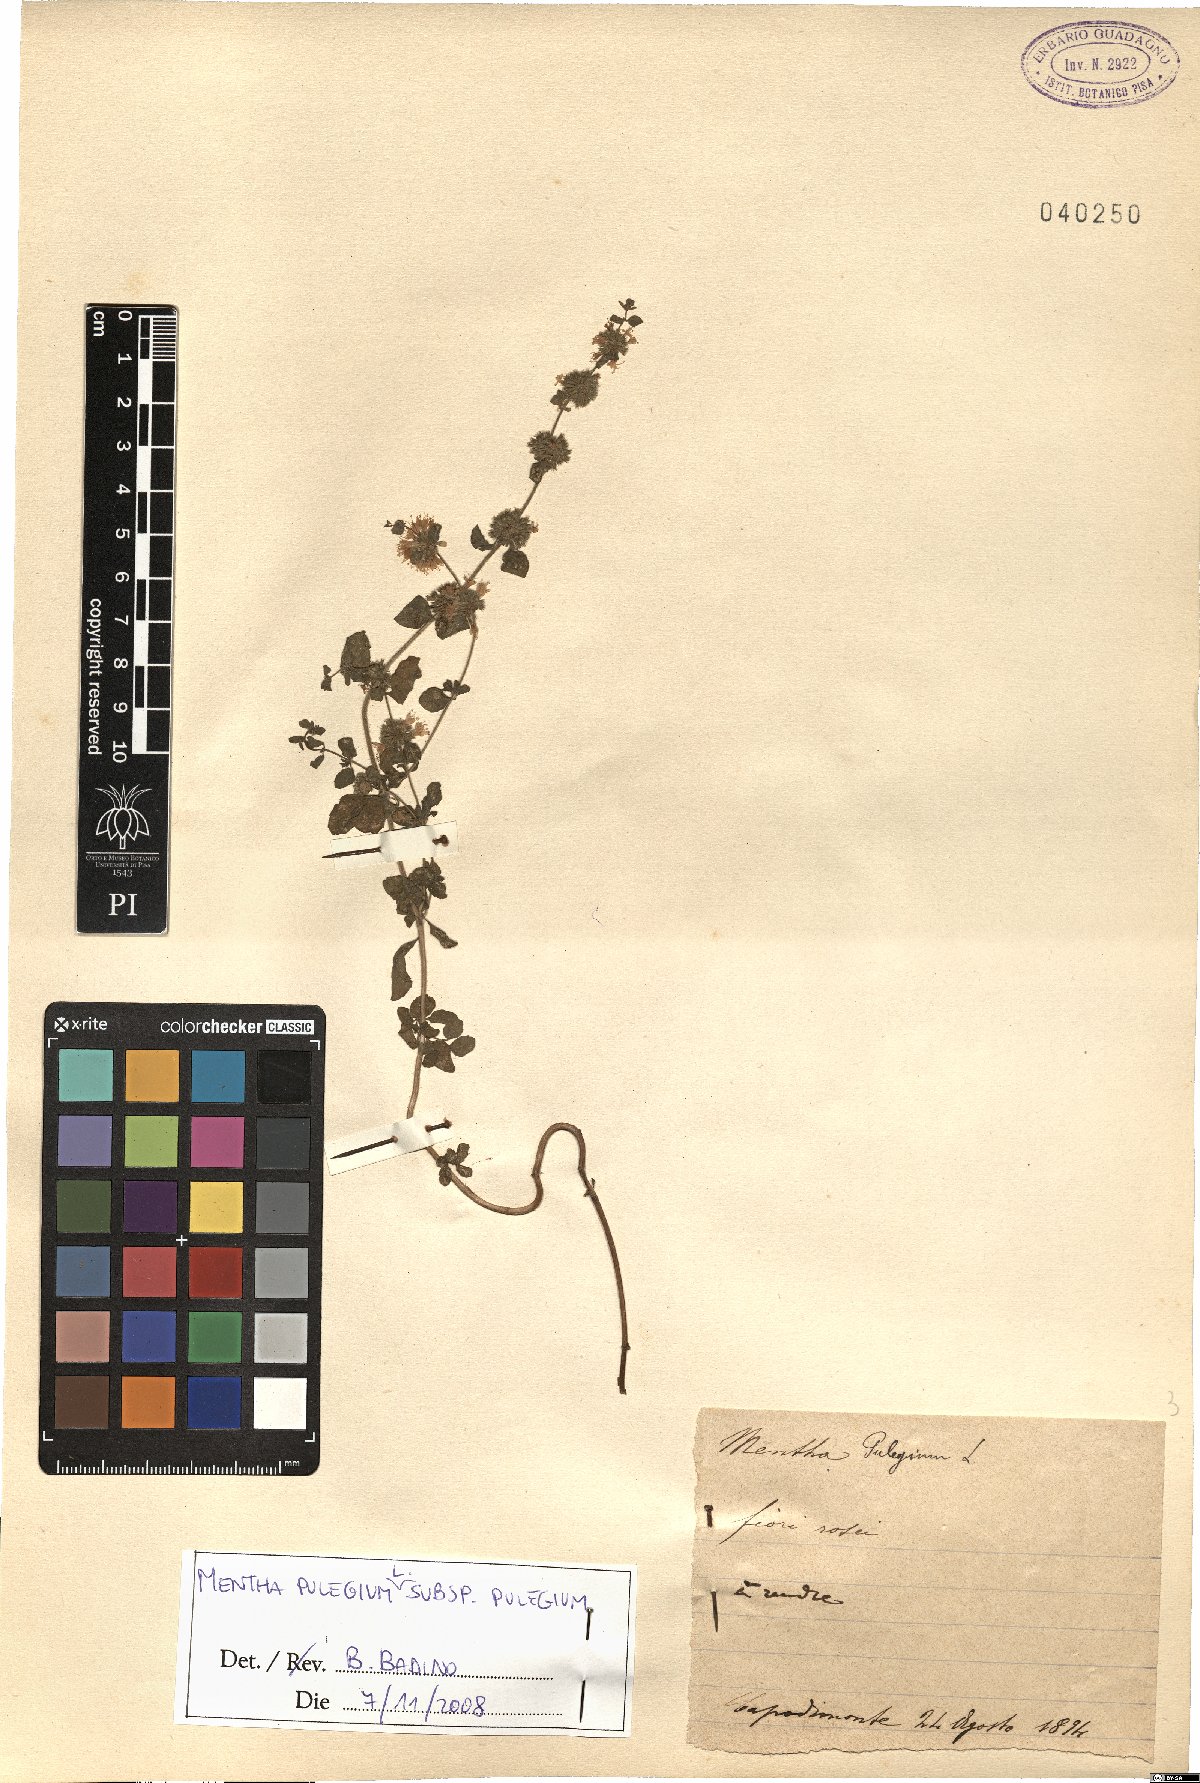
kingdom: Plantae
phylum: Tracheophyta
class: Magnoliopsida
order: Lamiales
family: Lamiaceae
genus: Mentha
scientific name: Mentha pulegium
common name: Pennyroyal
